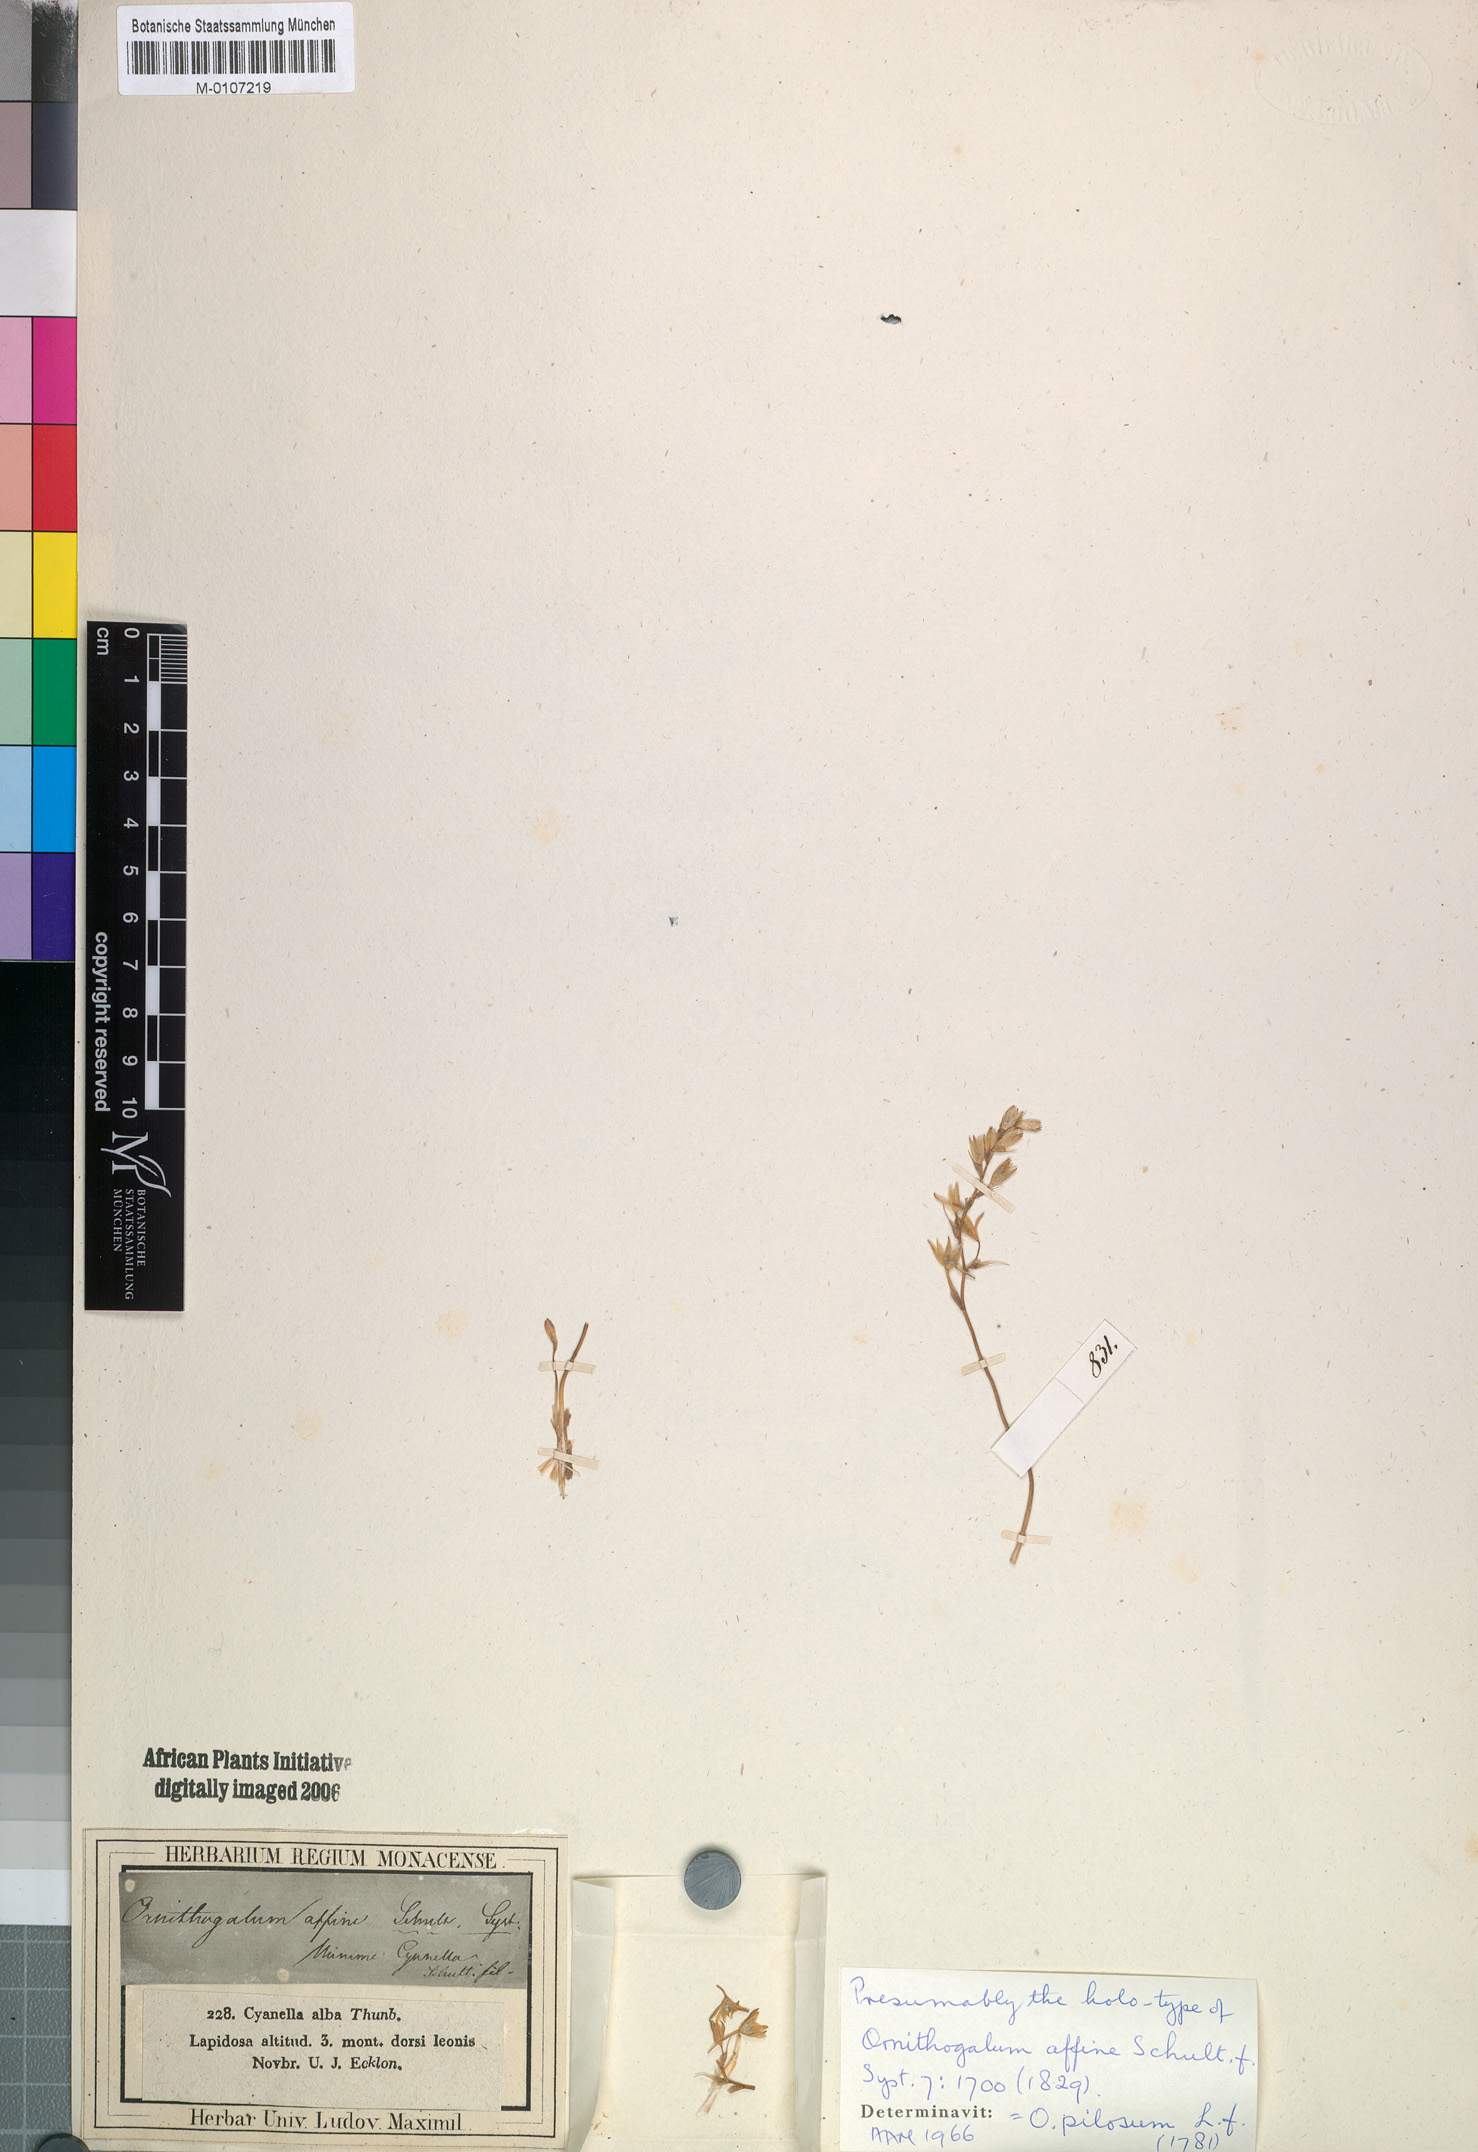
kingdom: Plantae
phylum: Tracheophyta
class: Liliopsida
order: Asparagales
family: Asparagaceae
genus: Ornithogalum
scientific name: Ornithogalum pilosum
